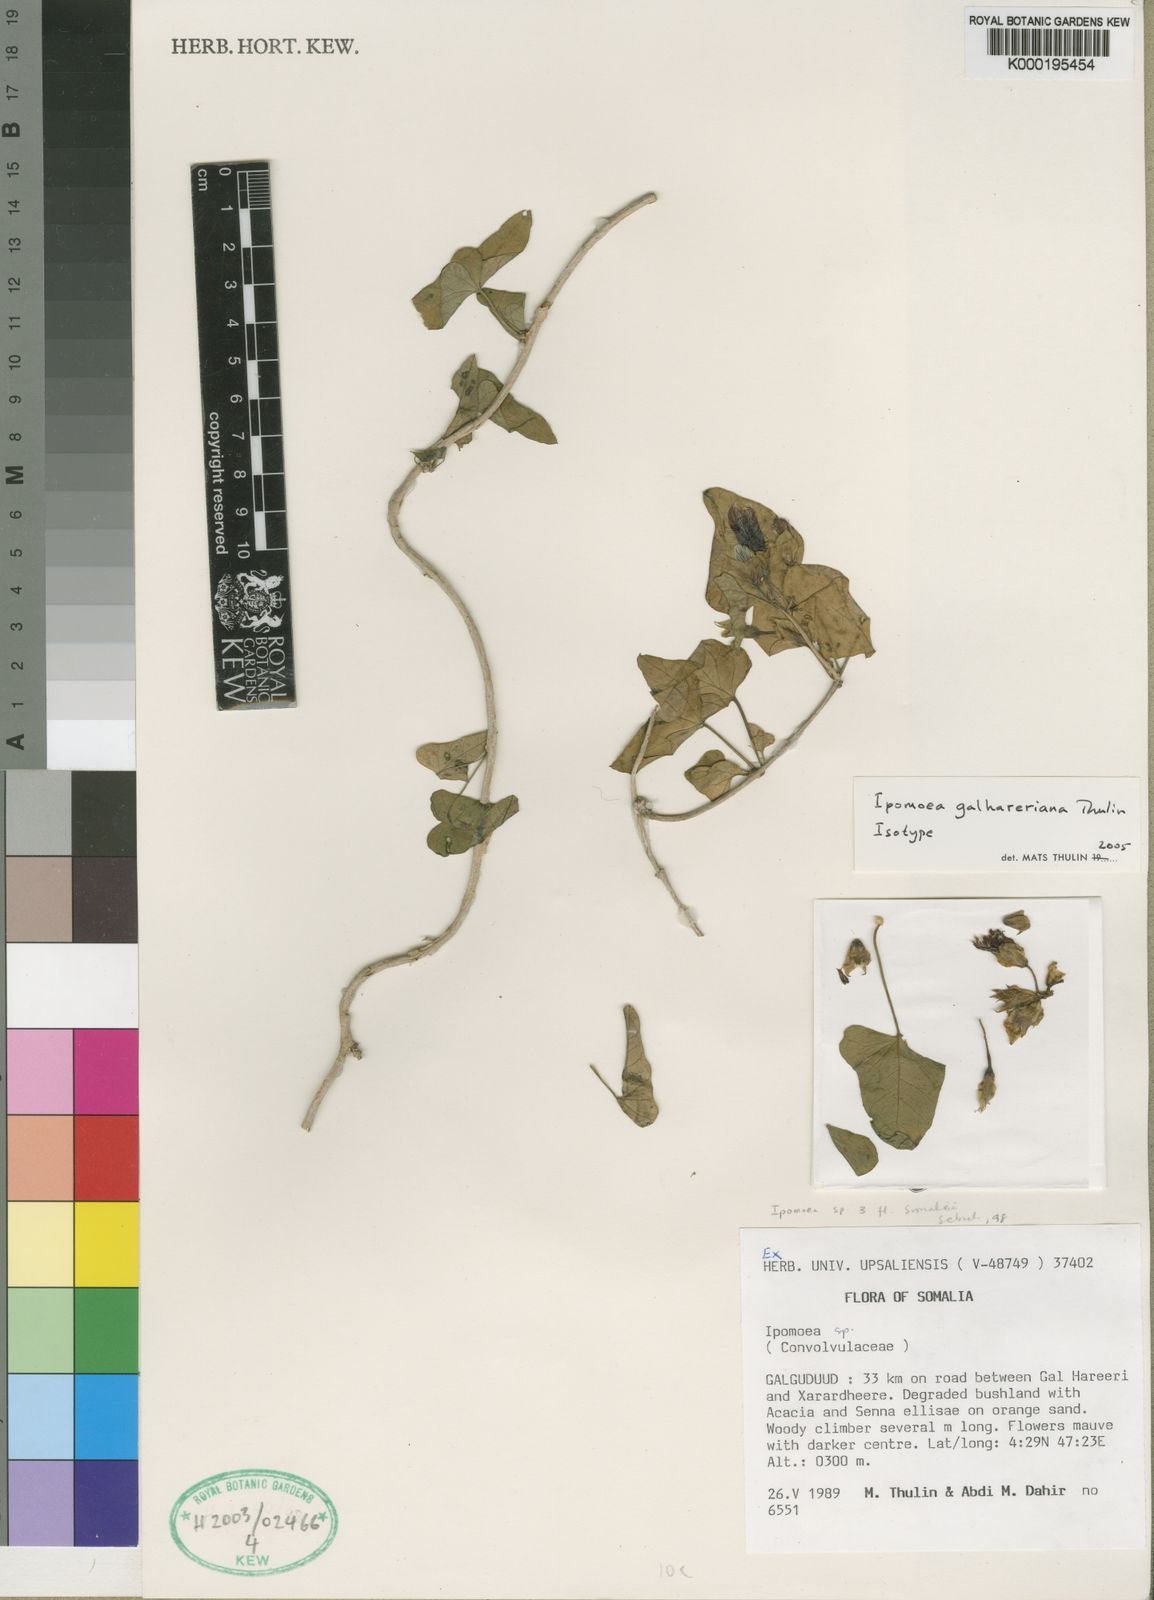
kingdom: Plantae
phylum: Tracheophyta
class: Magnoliopsida
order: Solanales
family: Convolvulaceae
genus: Ipomoea
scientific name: Ipomoea galhareriana
